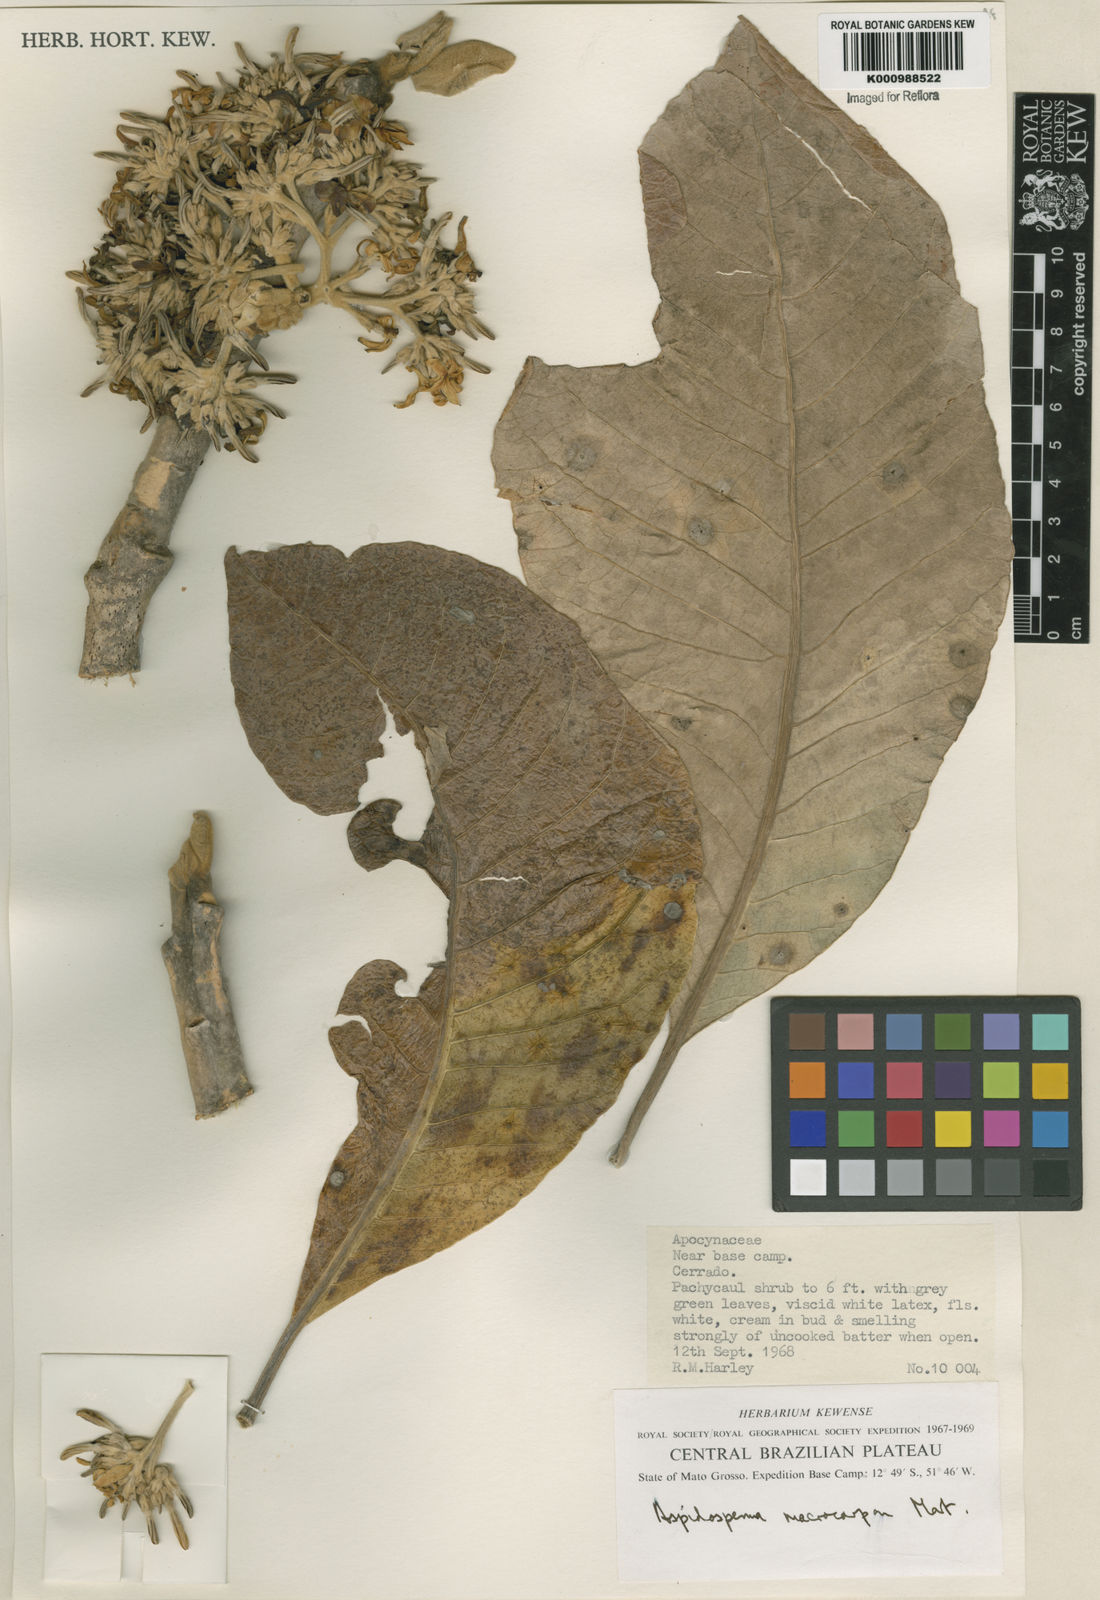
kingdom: Plantae
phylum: Tracheophyta
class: Magnoliopsida
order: Gentianales
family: Apocynaceae
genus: Aspidosperma
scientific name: Aspidosperma macrocarpon
